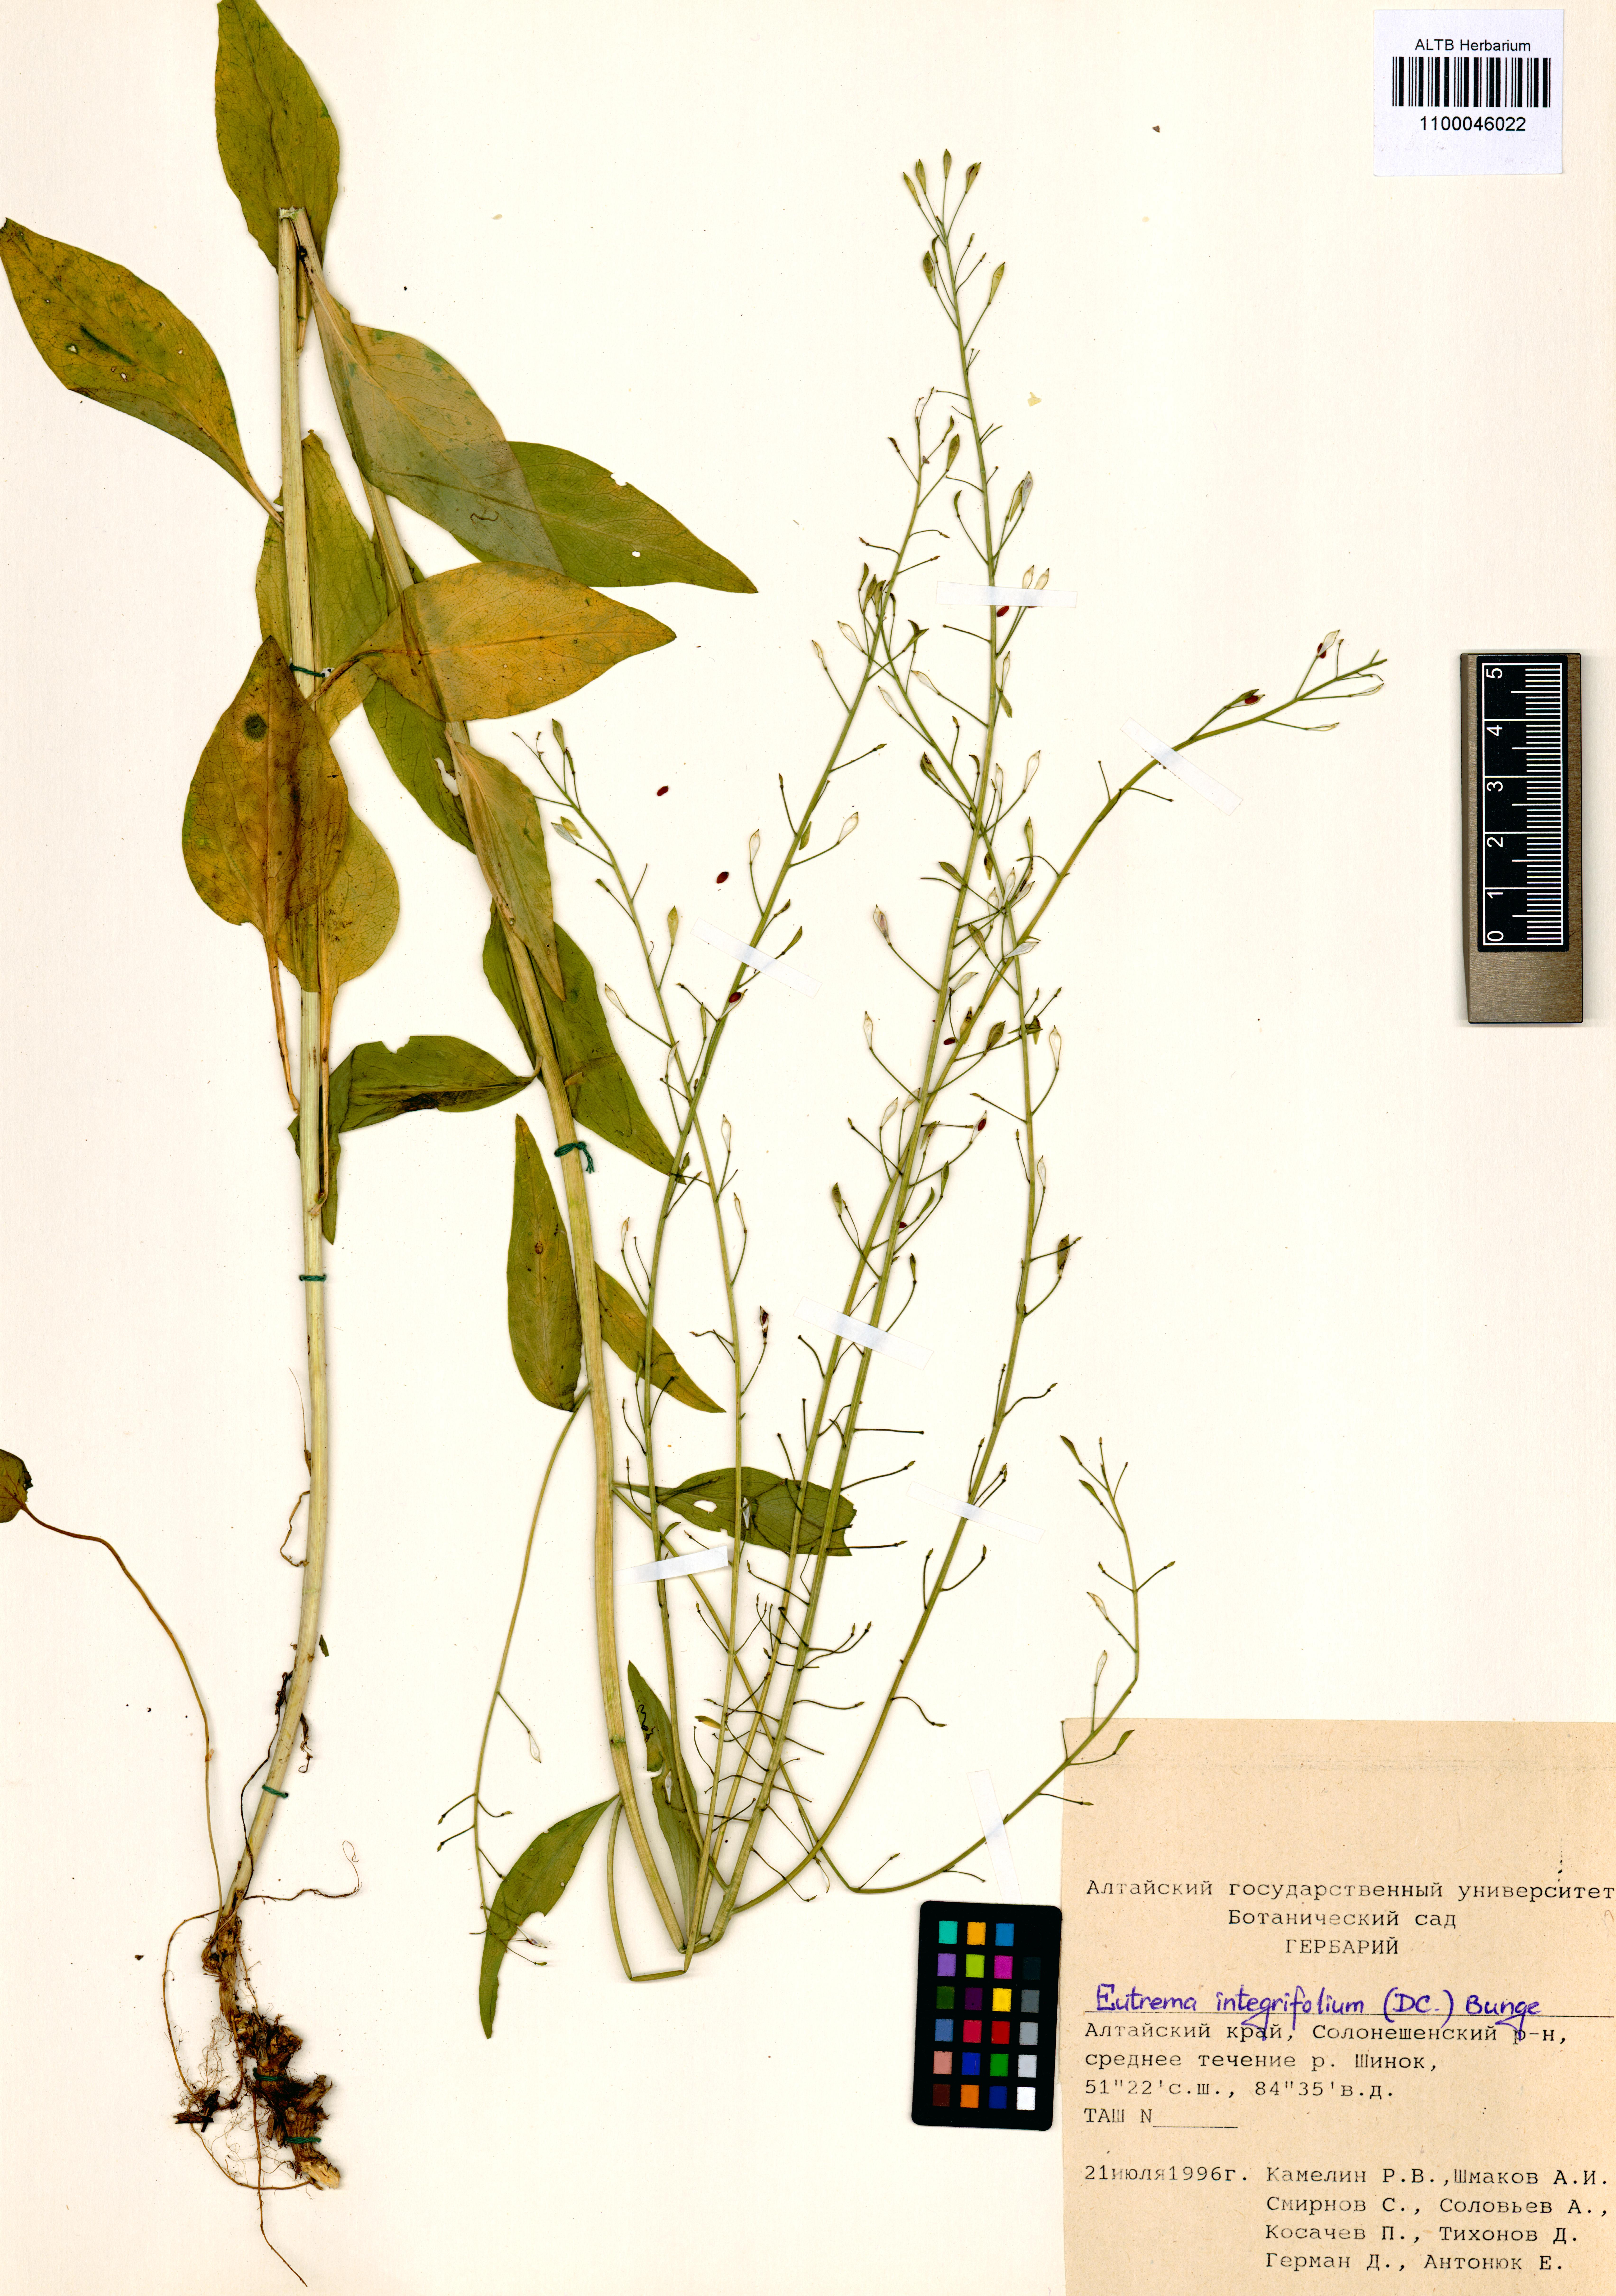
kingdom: Plantae
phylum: Tracheophyta
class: Magnoliopsida
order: Brassicales
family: Brassicaceae
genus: Eutrema
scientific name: Eutrema integrifolium
